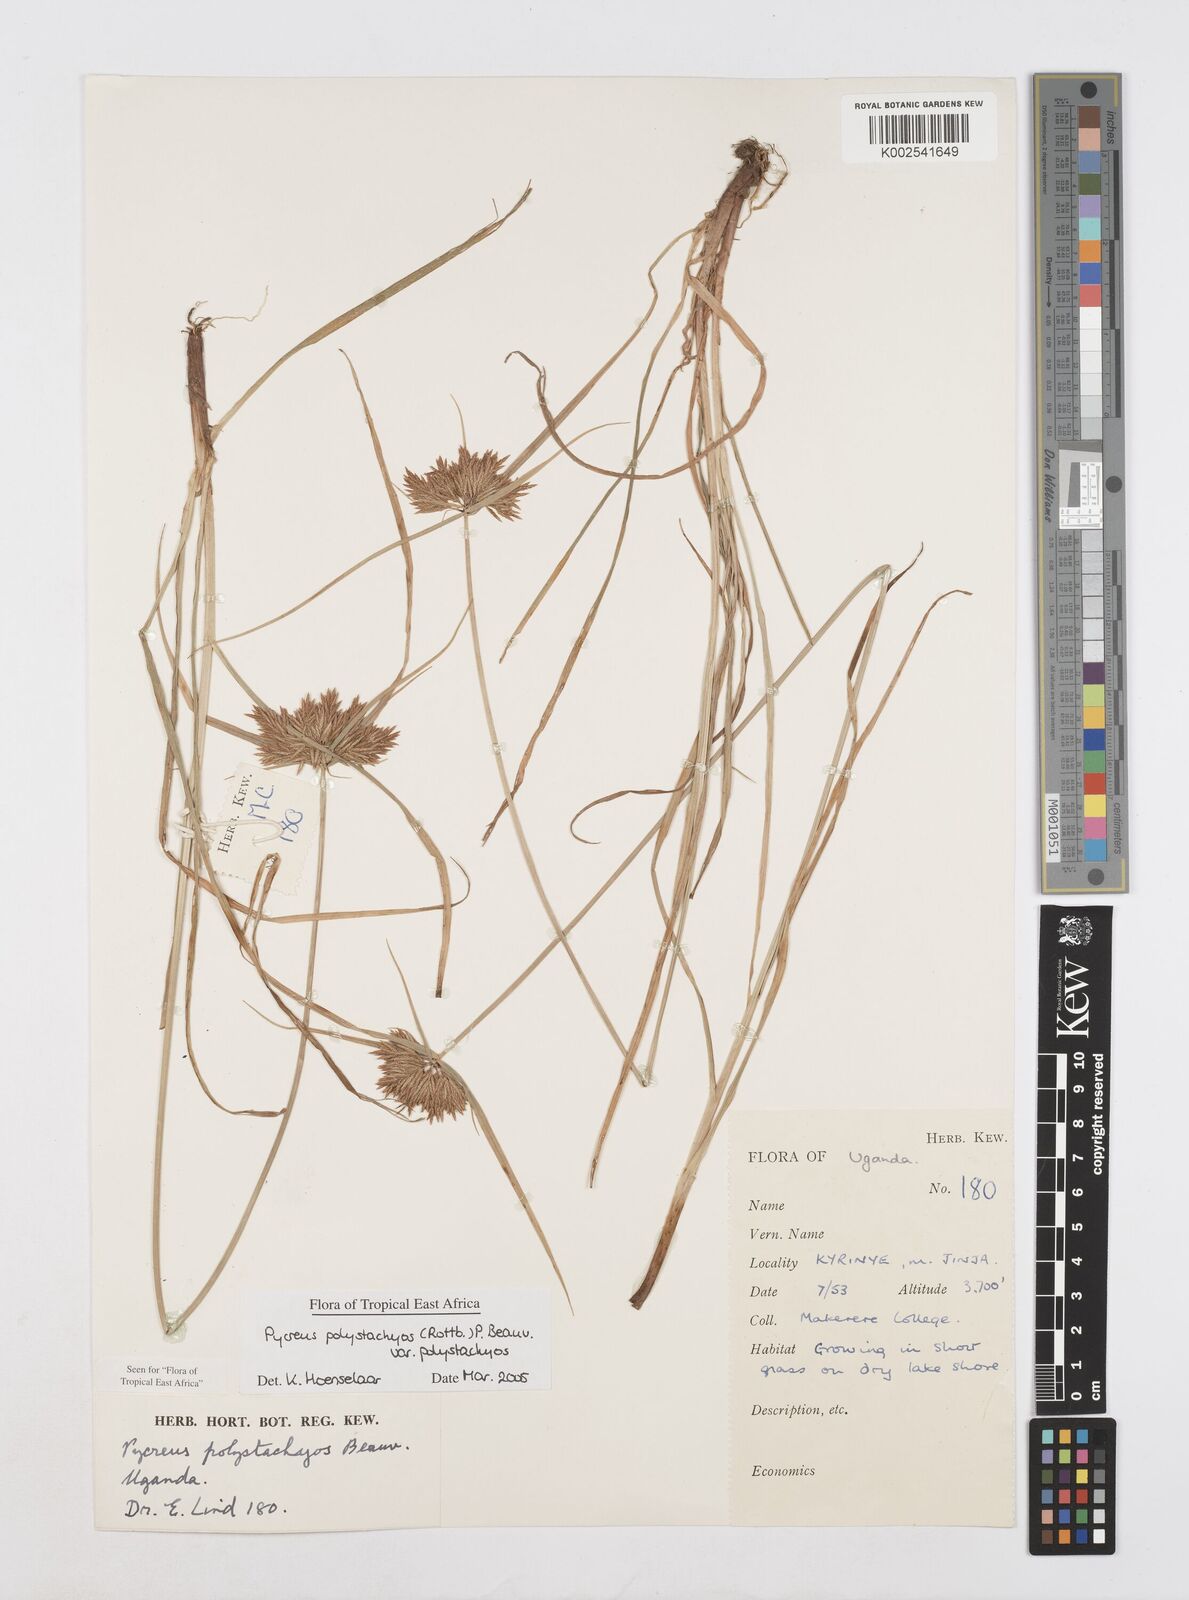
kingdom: Plantae
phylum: Tracheophyta
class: Liliopsida
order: Poales
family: Cyperaceae
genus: Cyperus
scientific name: Cyperus polystachyos
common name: Bunchy flat sedge
